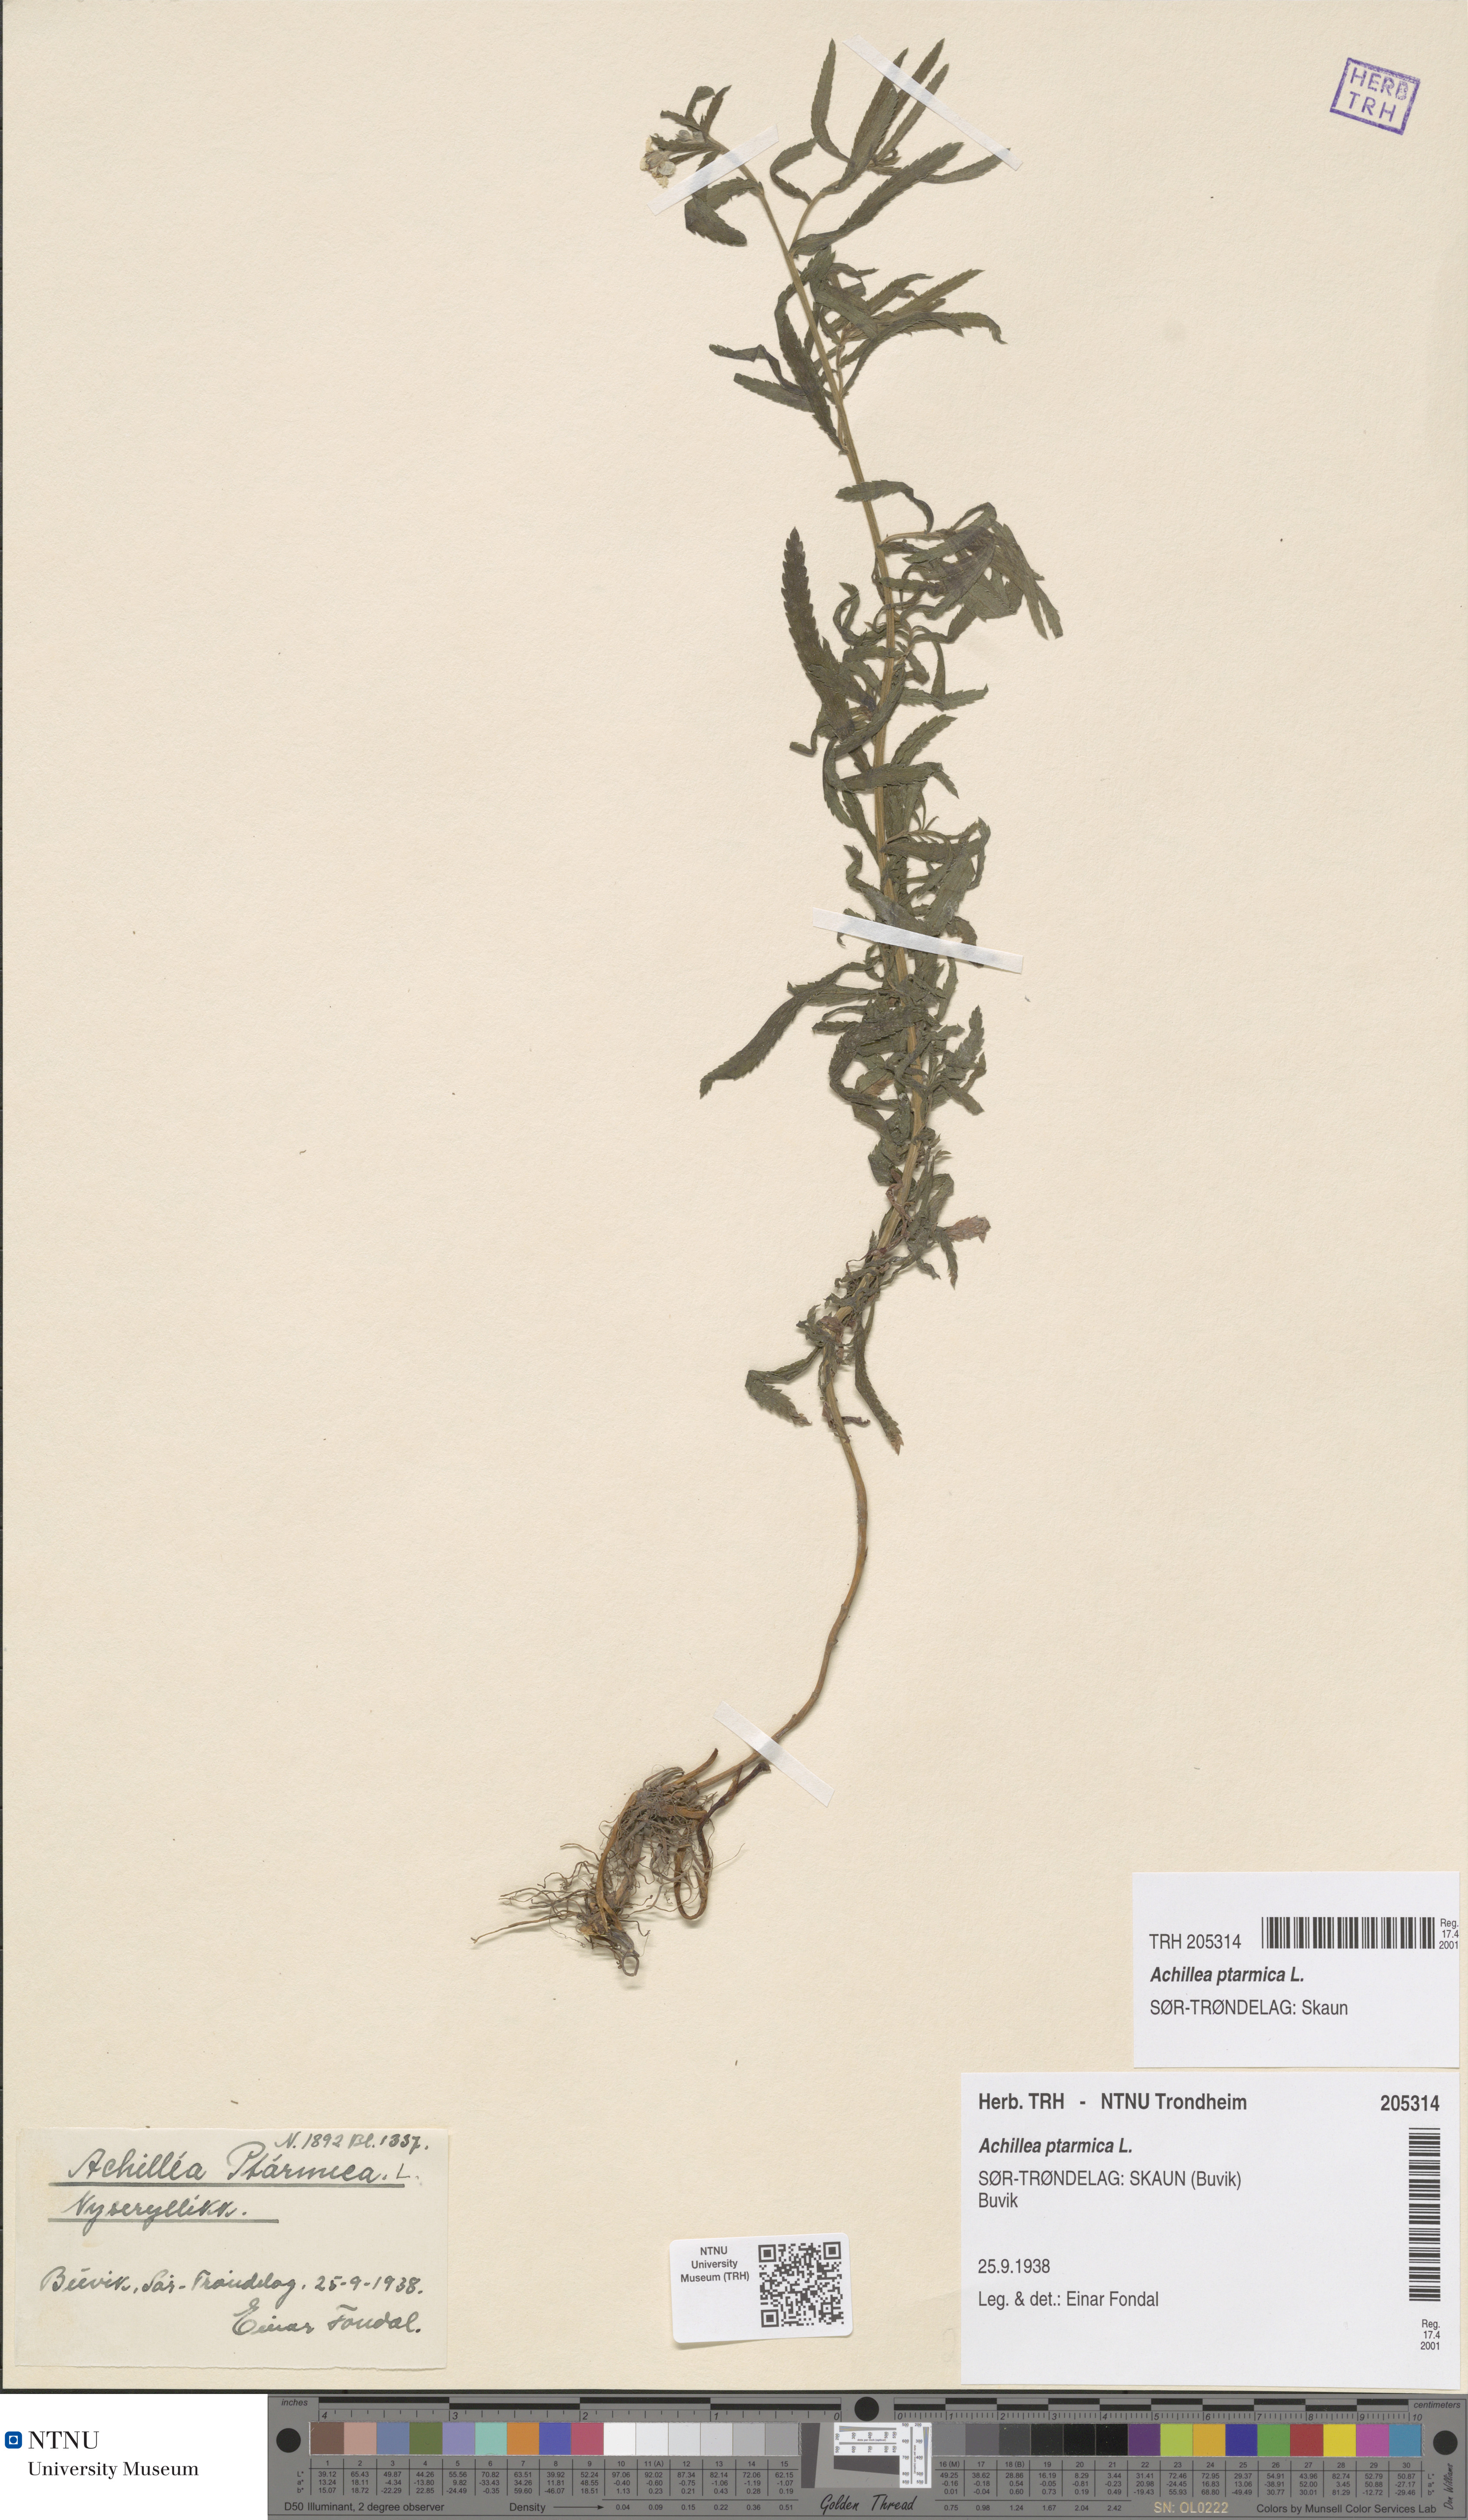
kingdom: Plantae
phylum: Tracheophyta
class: Magnoliopsida
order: Asterales
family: Asteraceae
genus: Achillea
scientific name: Achillea ptarmica
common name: Sneezeweed
